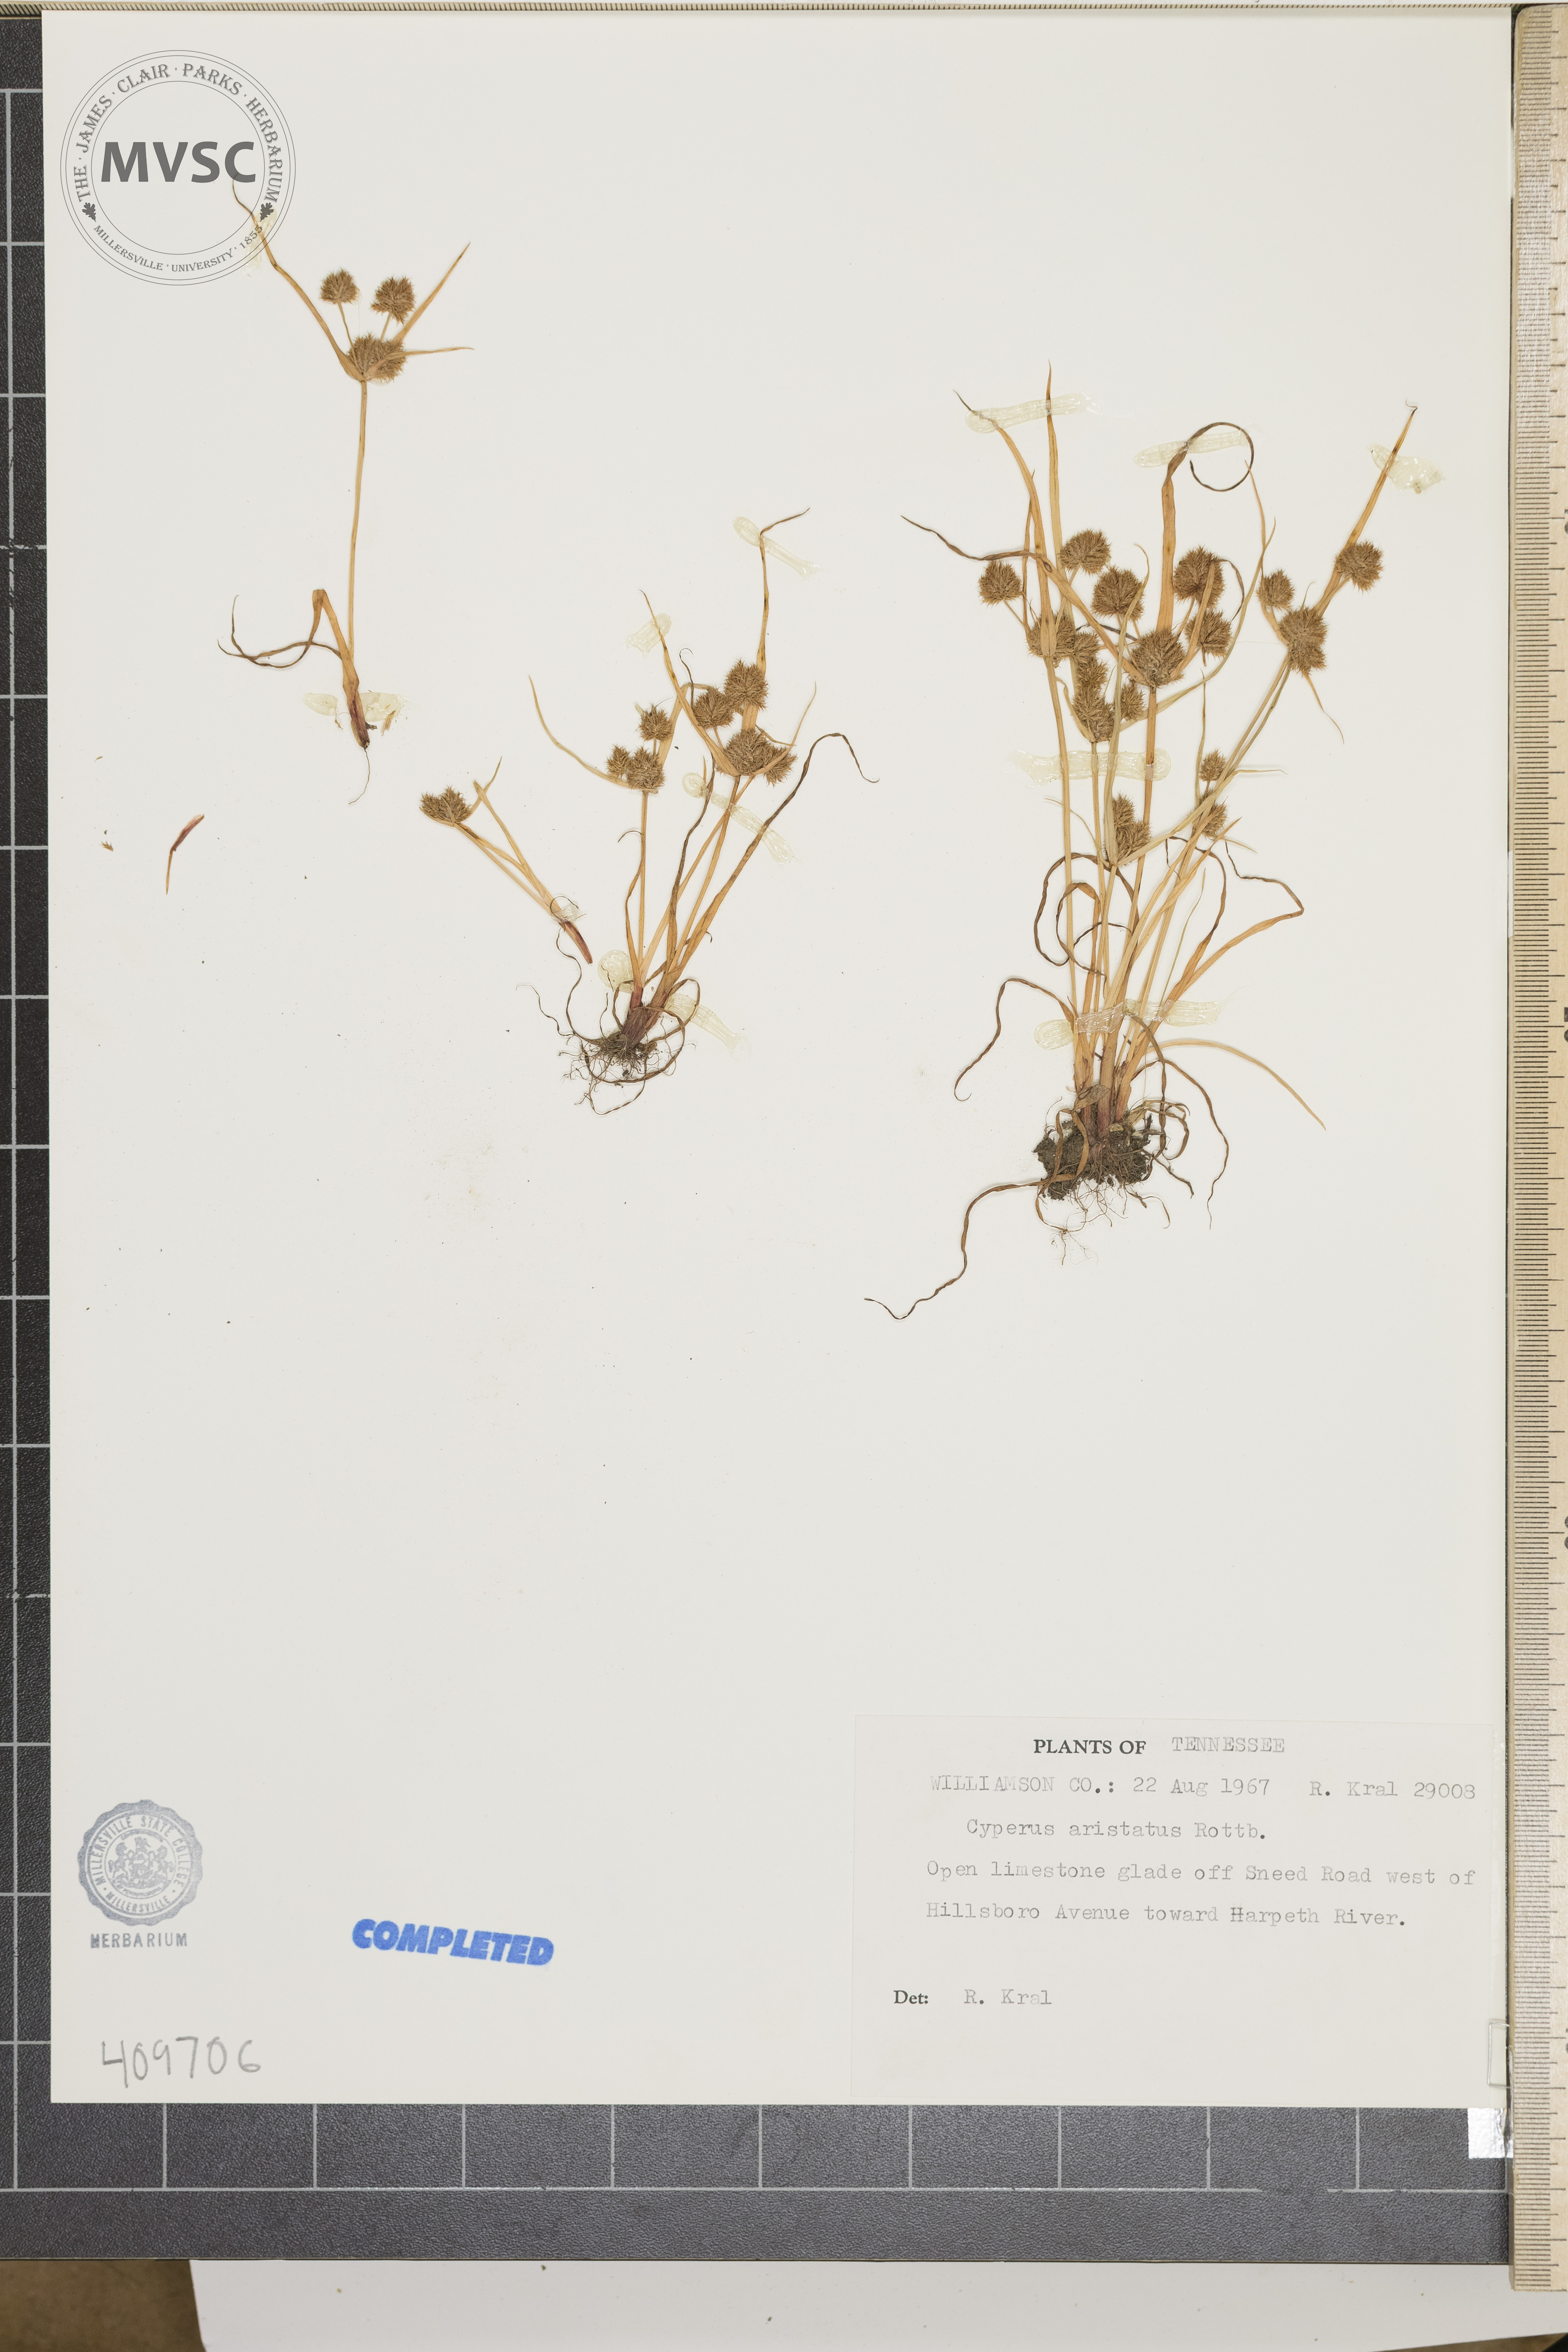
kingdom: Plantae
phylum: Tracheophyta
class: Liliopsida
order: Poales
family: Cyperaceae
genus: Cyperus
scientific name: Cyperus
